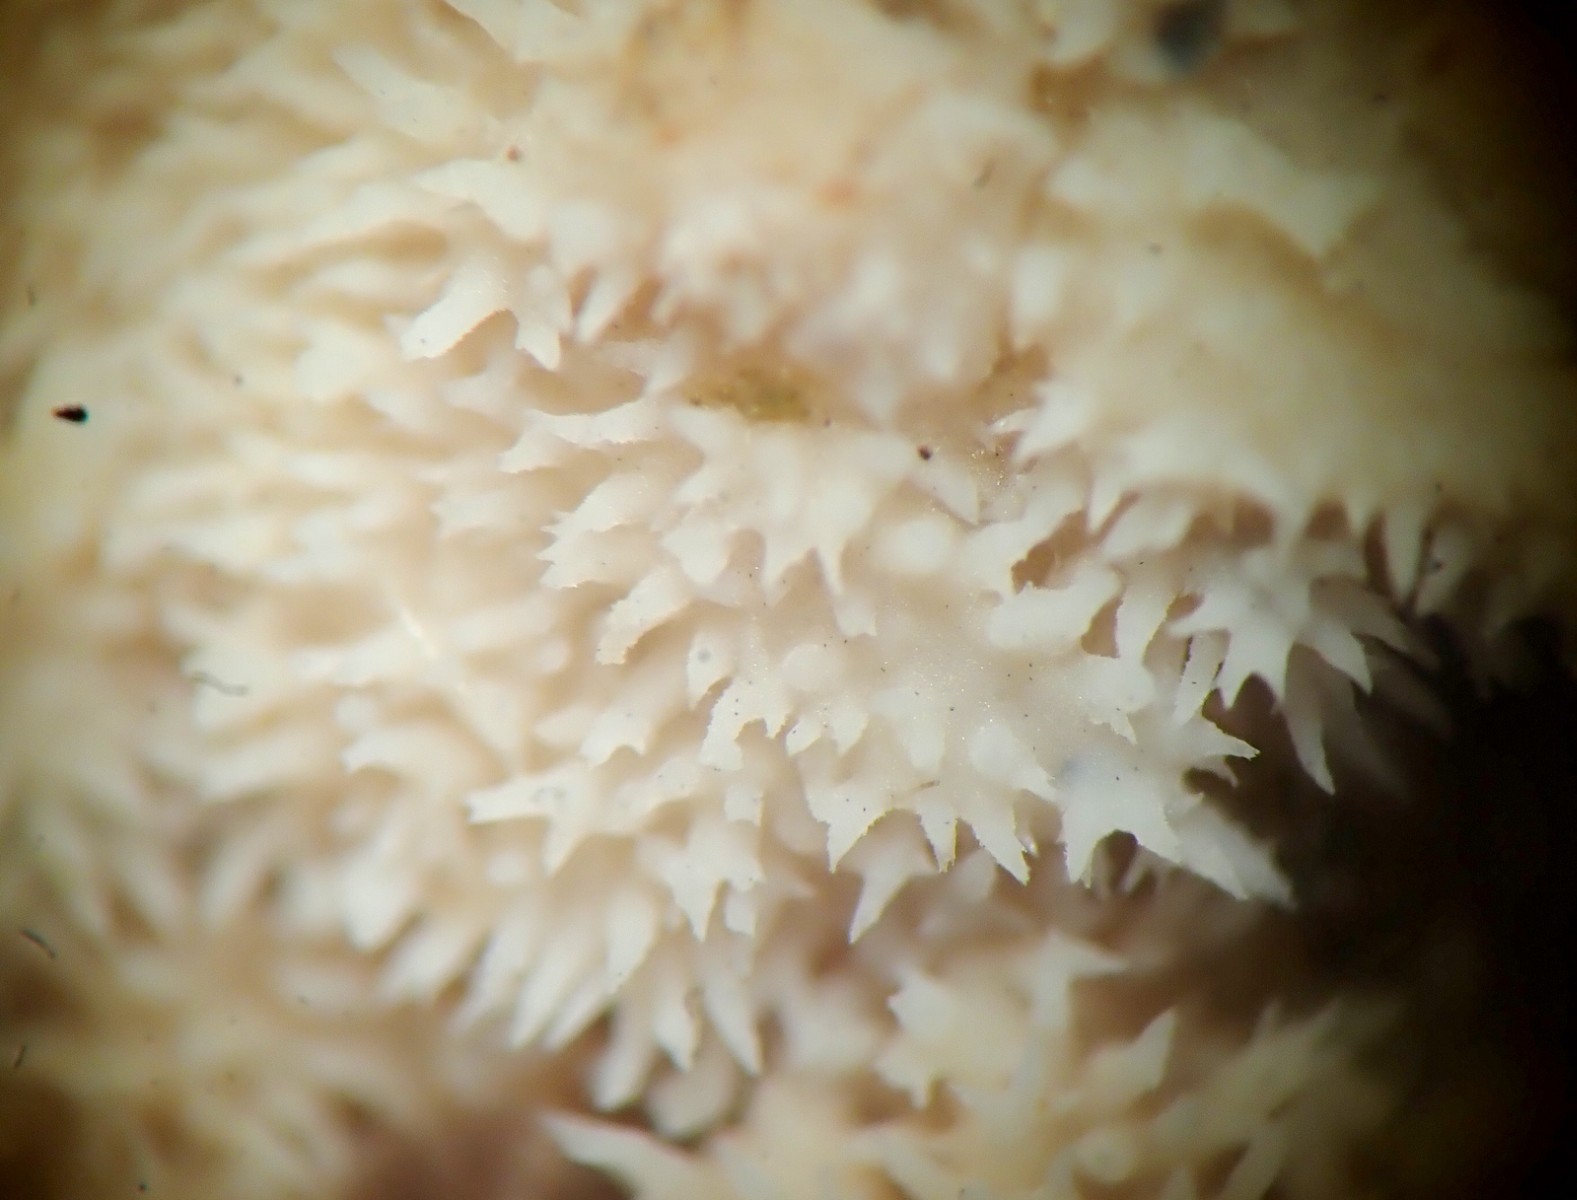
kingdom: Fungi
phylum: Basidiomycota
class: Agaricomycetes
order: Corticiales
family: Corticiaceae
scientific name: Corticiaceae
